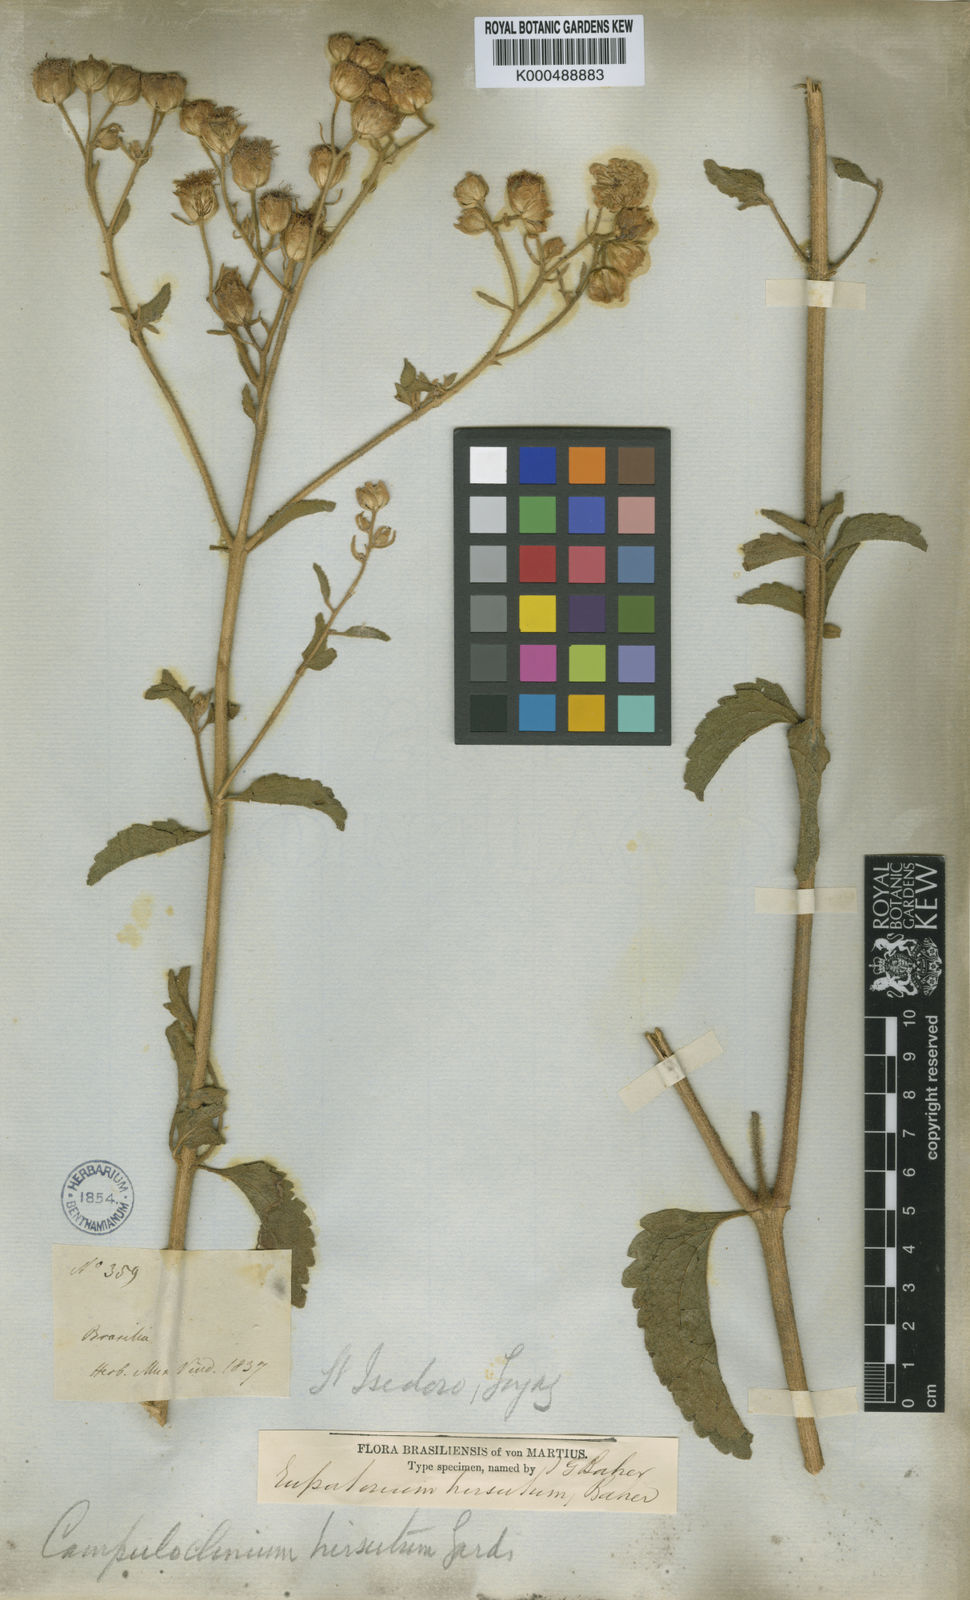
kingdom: Plantae
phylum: Tracheophyta
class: Magnoliopsida
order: Asterales
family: Asteraceae
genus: Campuloclinium
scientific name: Campuloclinium hirsutum
